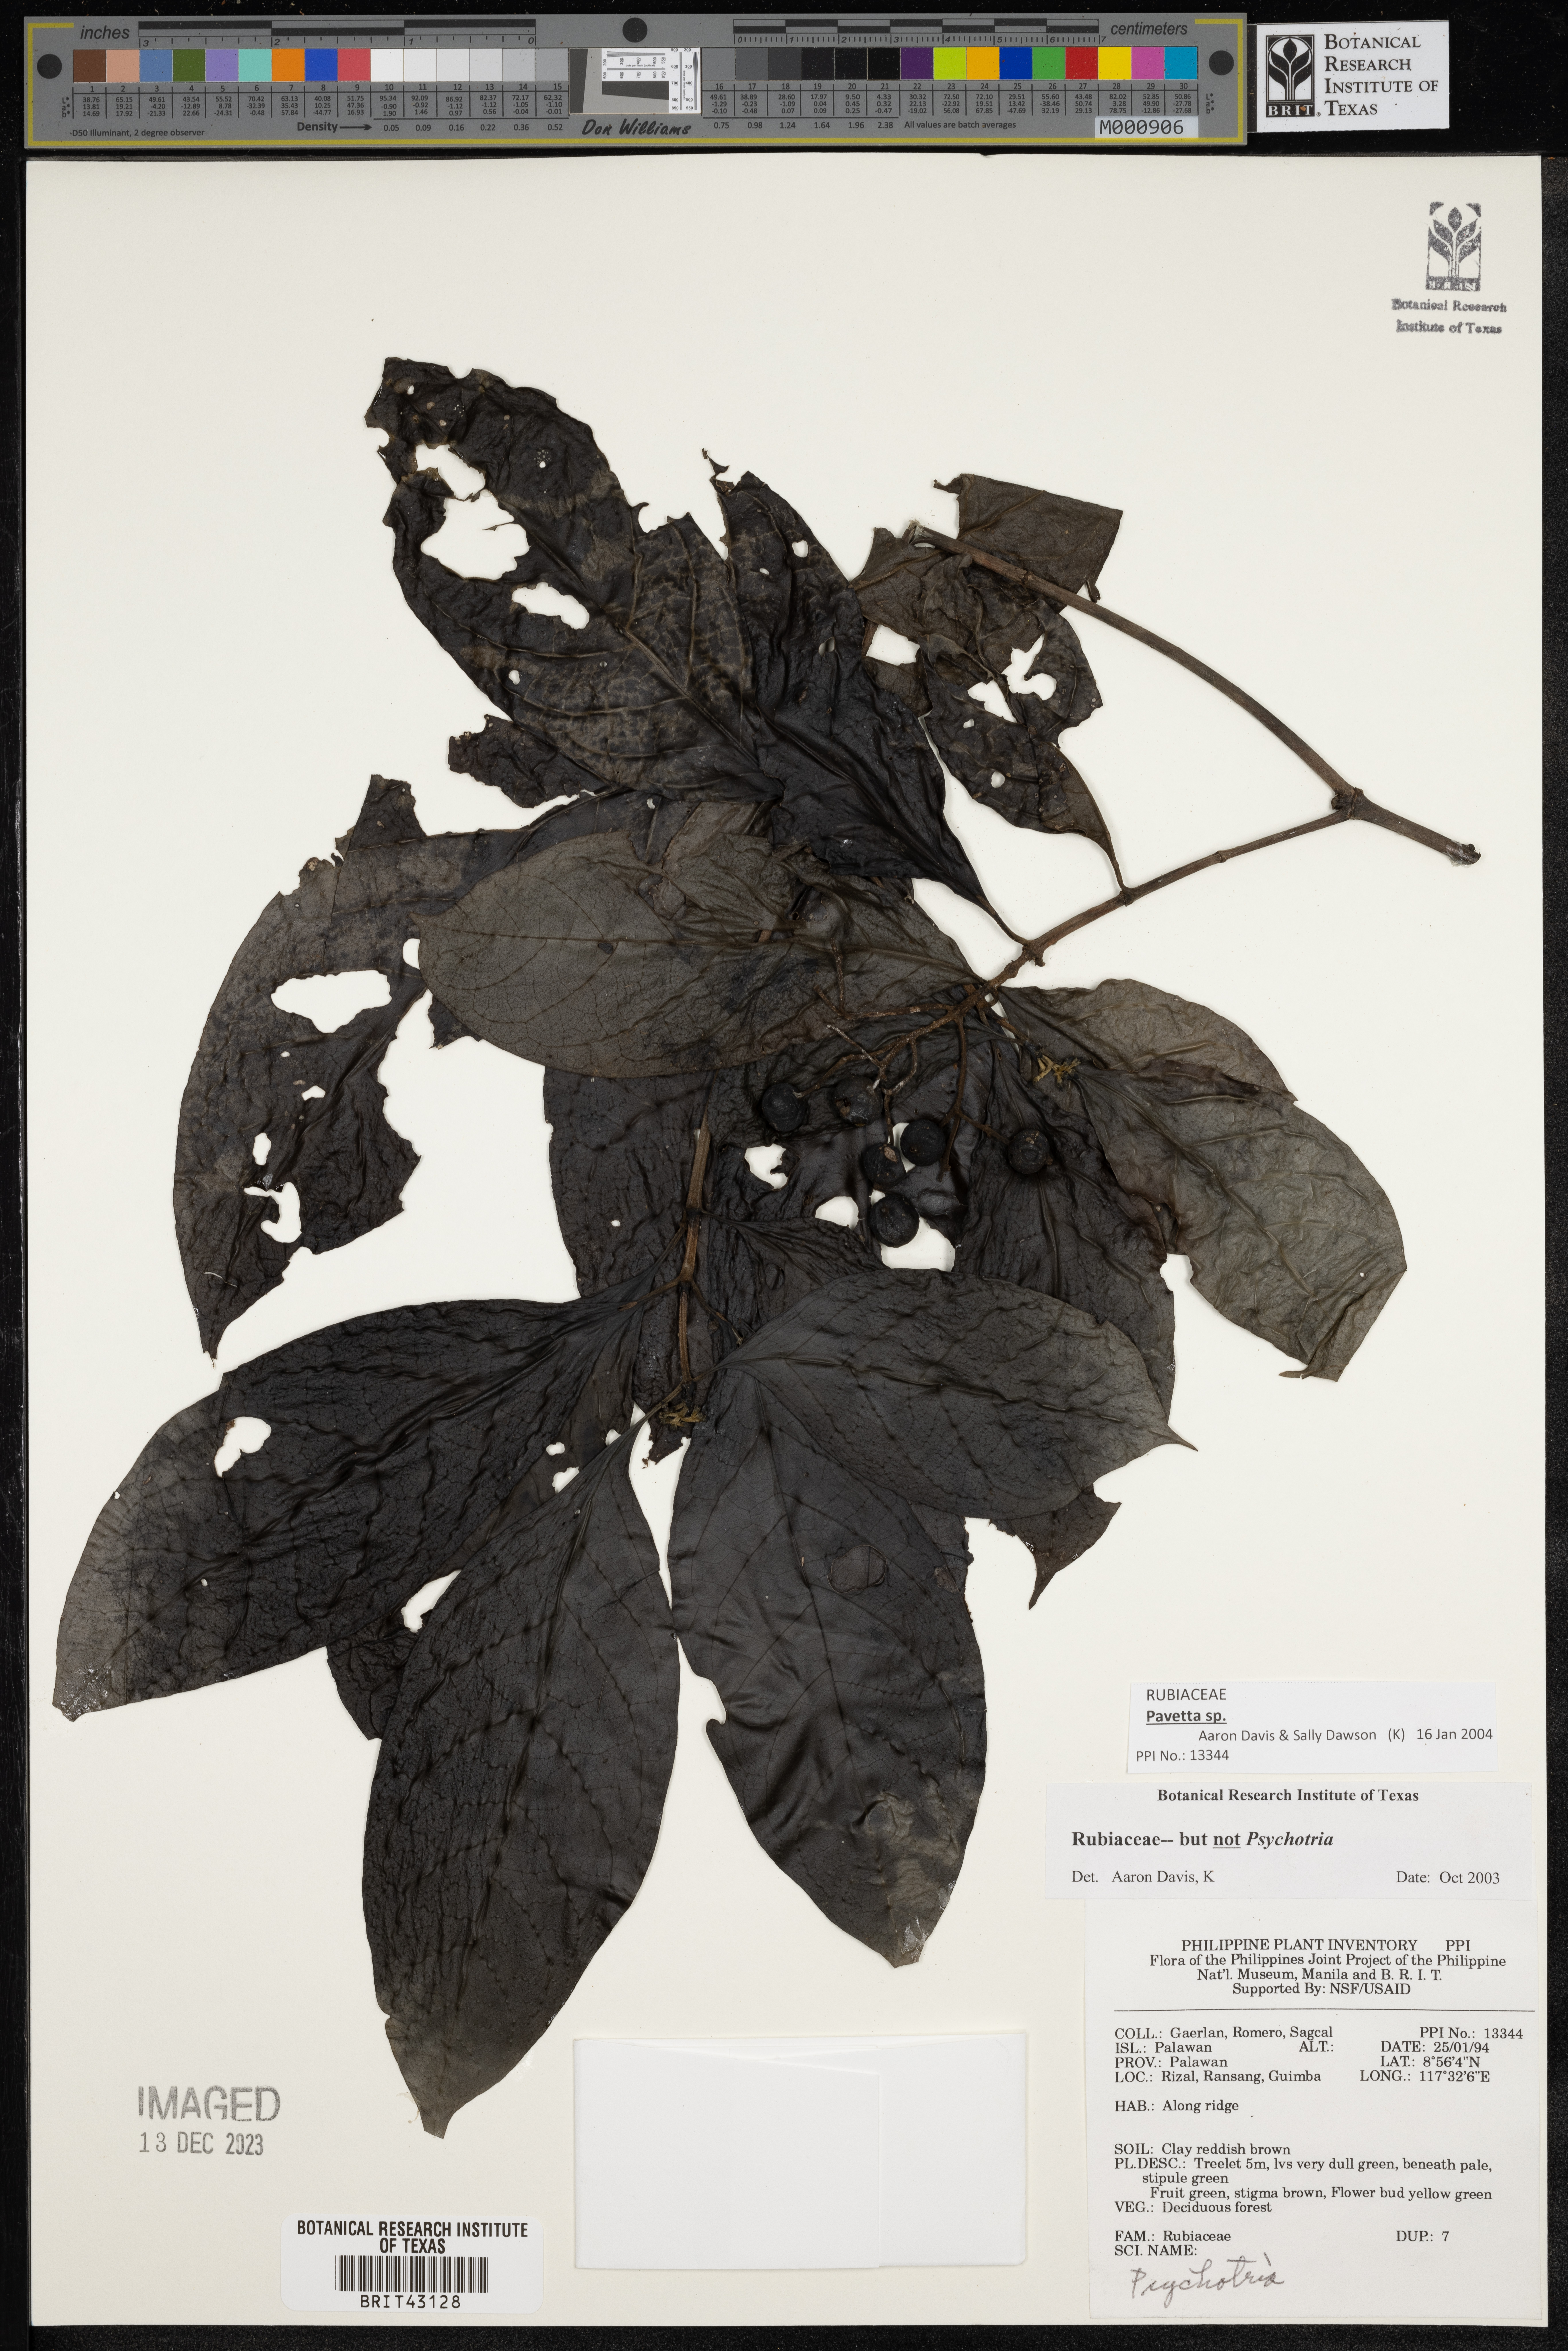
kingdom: Plantae
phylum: Tracheophyta
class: Magnoliopsida
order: Gentianales
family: Rubiaceae
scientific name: Rubiaceae
